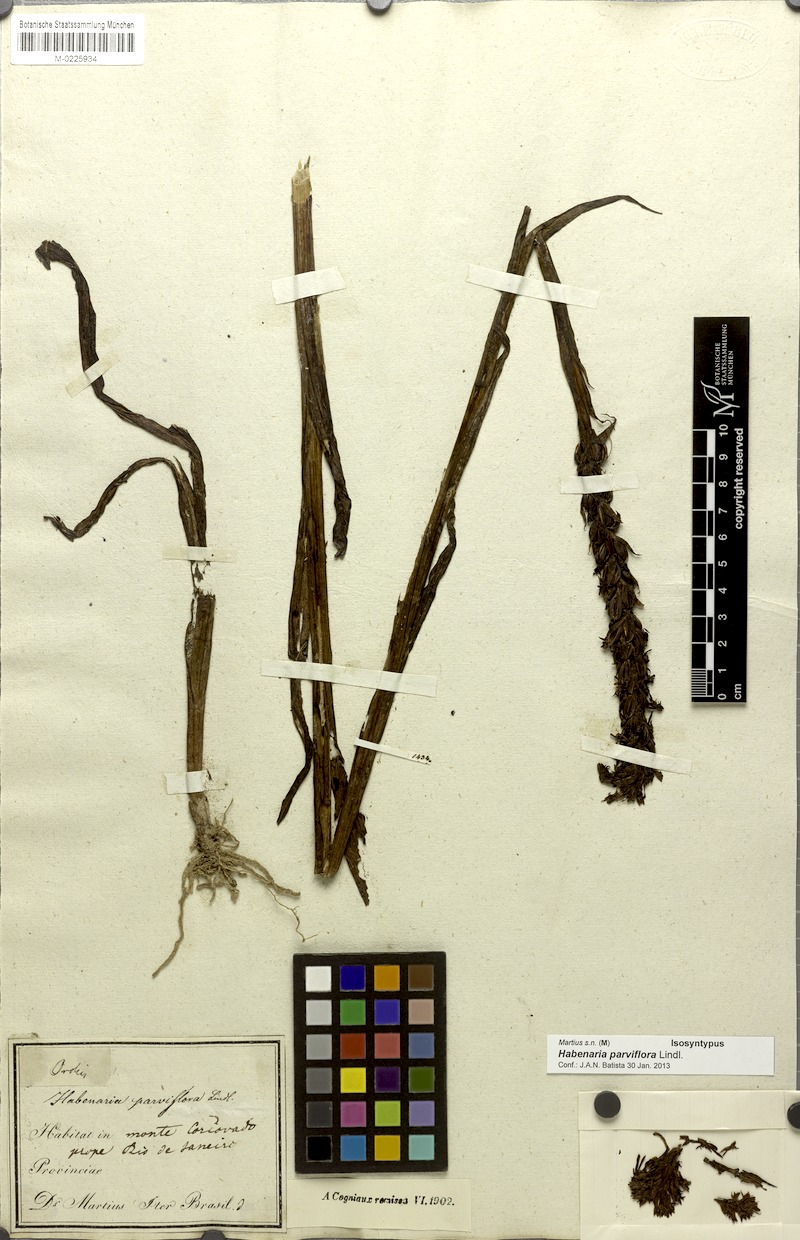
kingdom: Plantae
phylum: Tracheophyta
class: Liliopsida
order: Asparagales
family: Orchidaceae
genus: Habenaria
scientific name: Habenaria parviflora
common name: Small flowered habenaria
